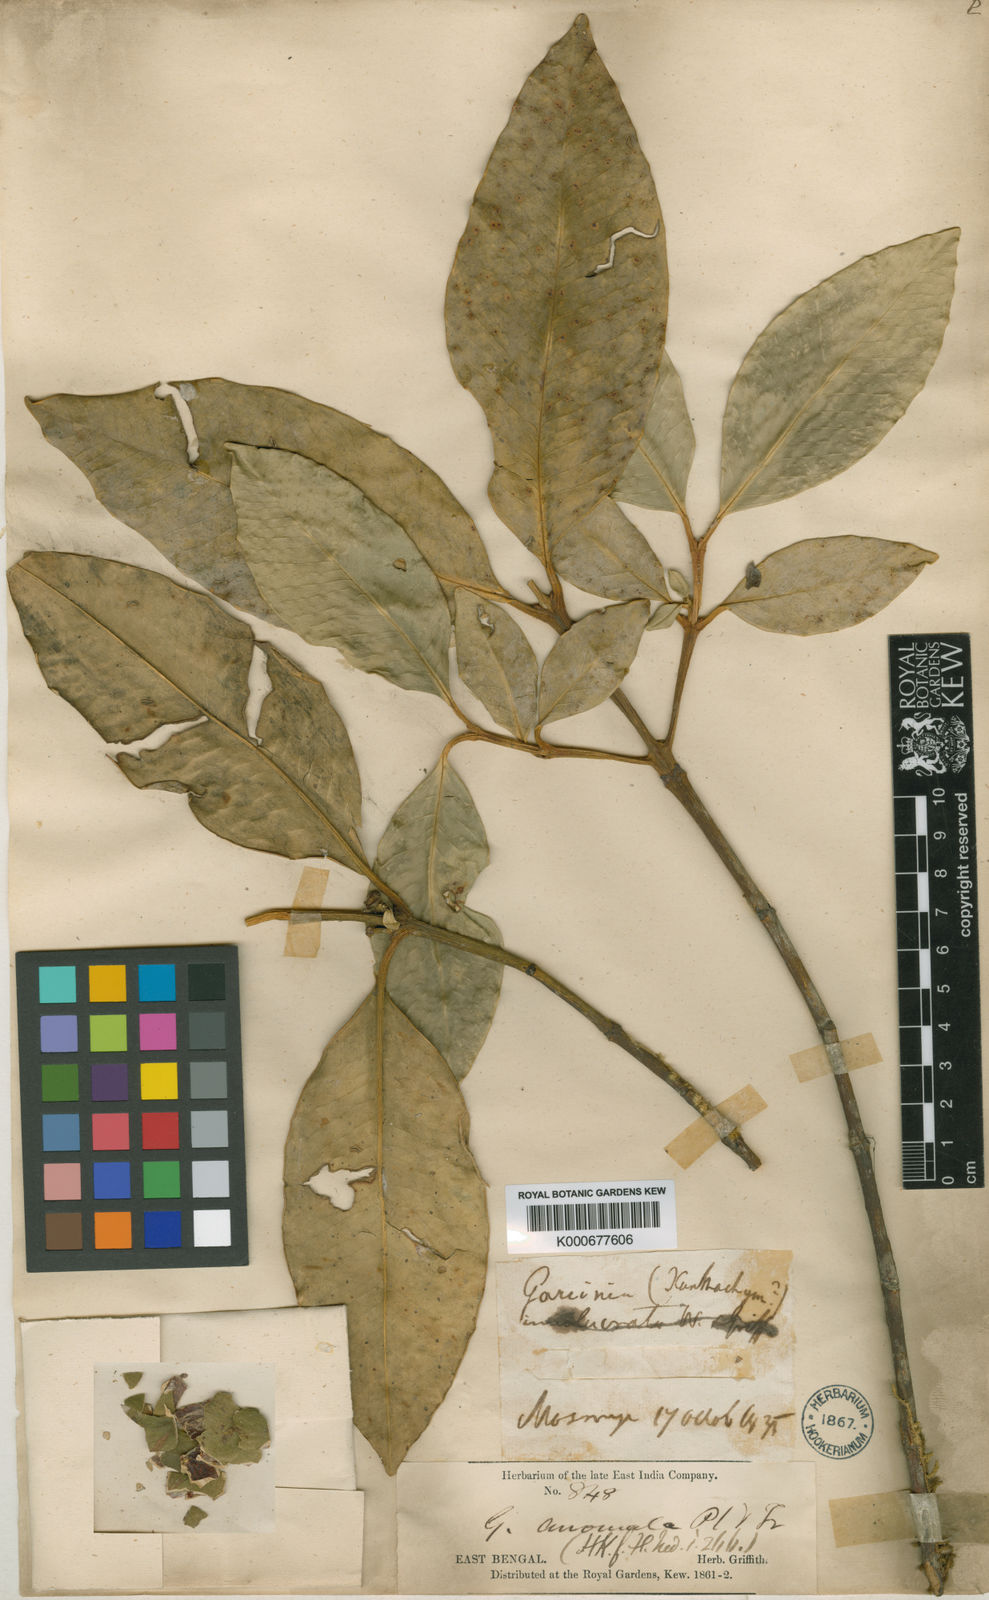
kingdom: Plantae
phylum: Tracheophyta
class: Magnoliopsida
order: Malpighiales
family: Clusiaceae
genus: Garcinia
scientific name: Garcinia anomala
